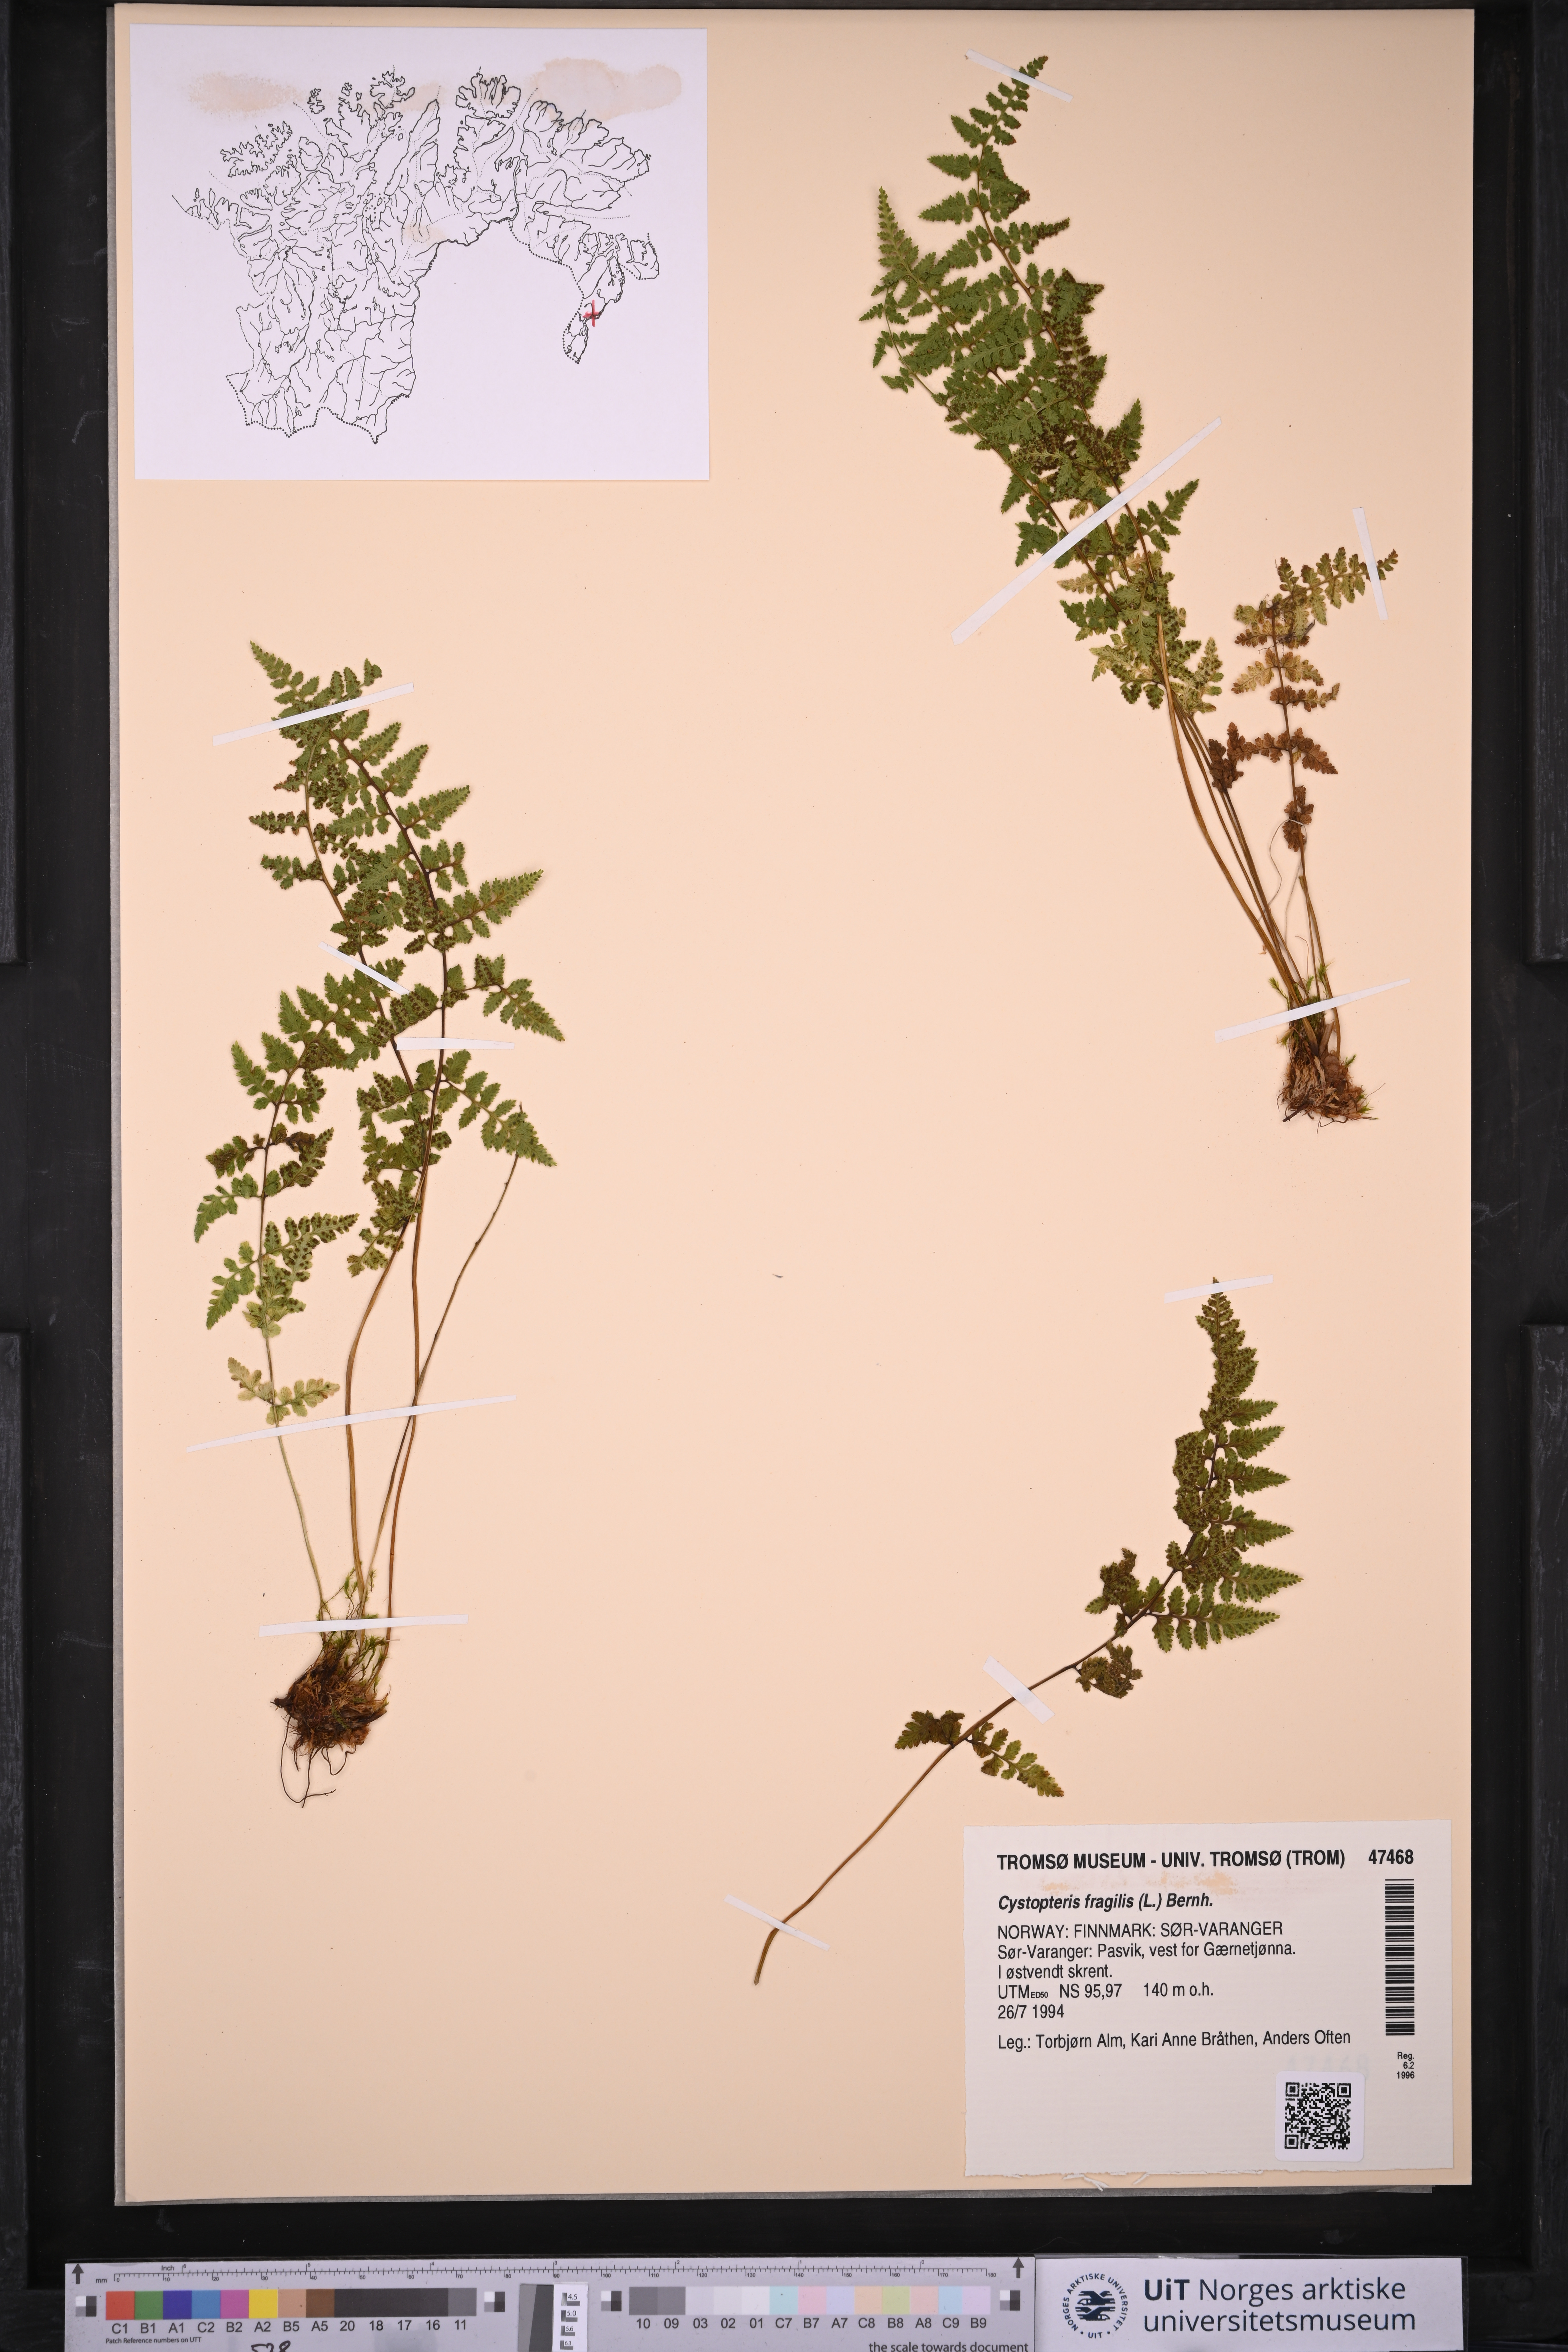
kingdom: Plantae
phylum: Tracheophyta
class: Polypodiopsida
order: Polypodiales
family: Cystopteridaceae
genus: Cystopteris
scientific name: Cystopteris fragilis
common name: Brittle bladder fern
